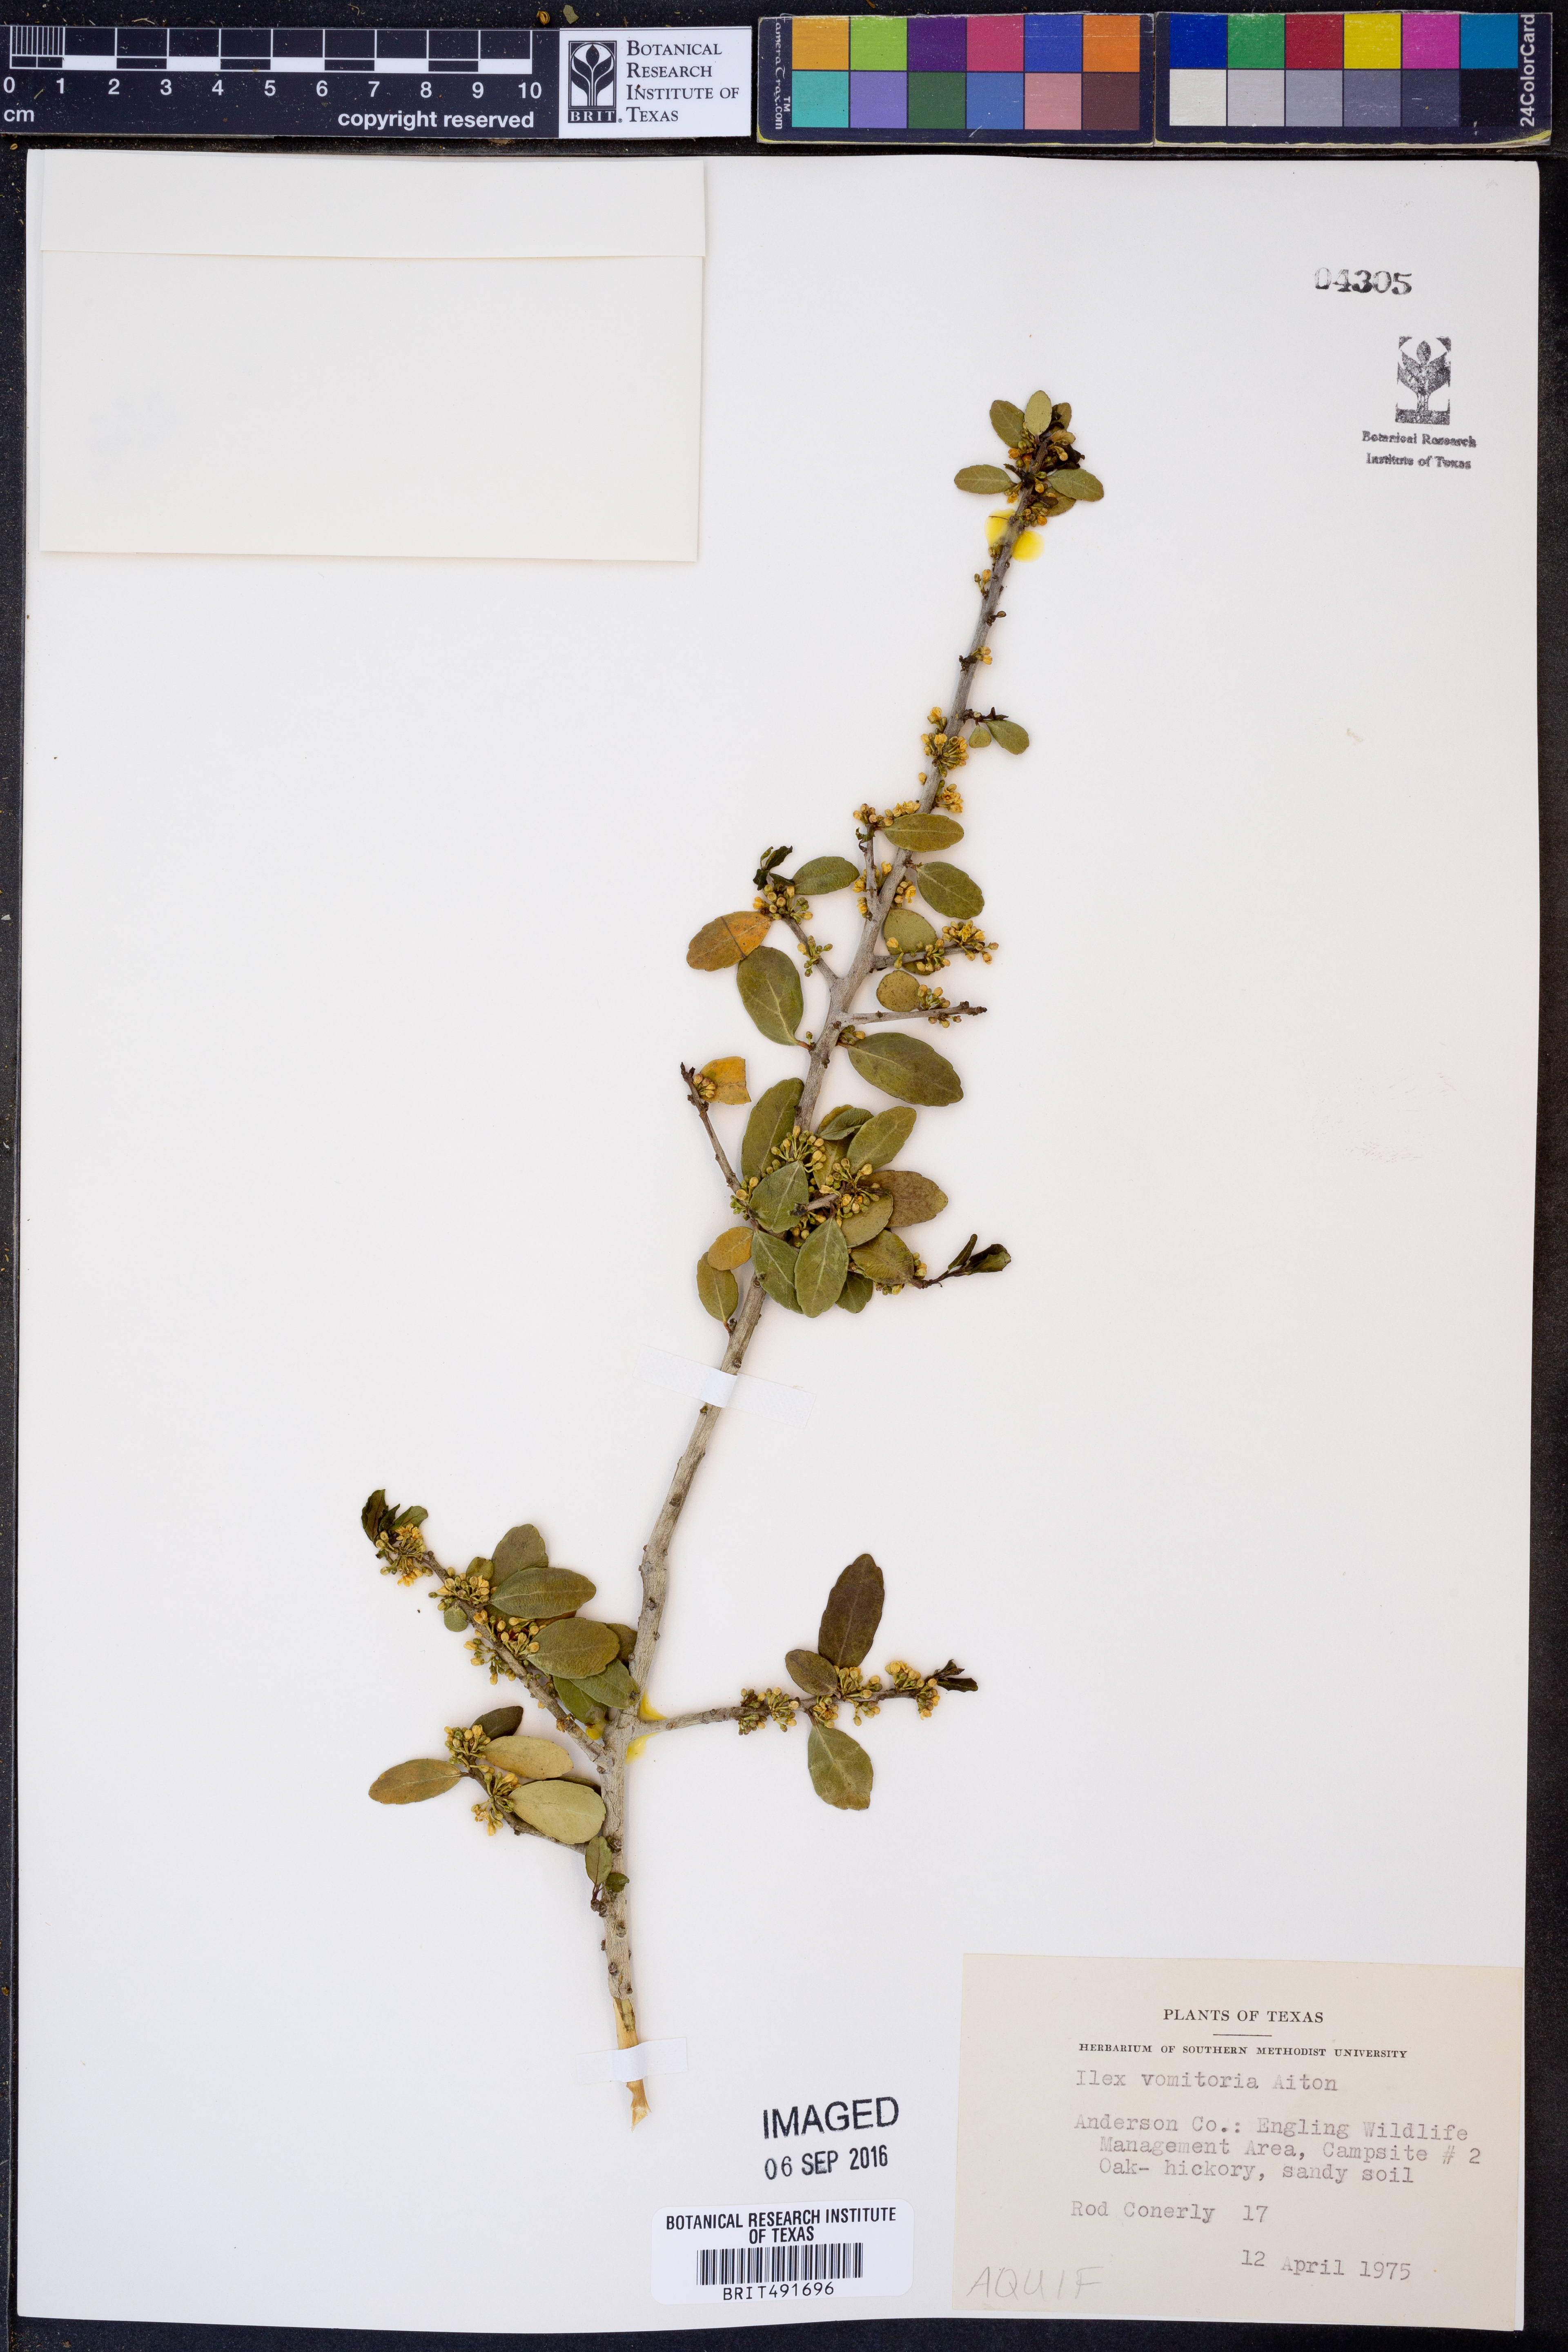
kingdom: Plantae
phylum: Tracheophyta
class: Magnoliopsida
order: Aquifoliales
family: Aquifoliaceae
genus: Ilex
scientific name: Ilex vomitoria
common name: Yaupon holly
